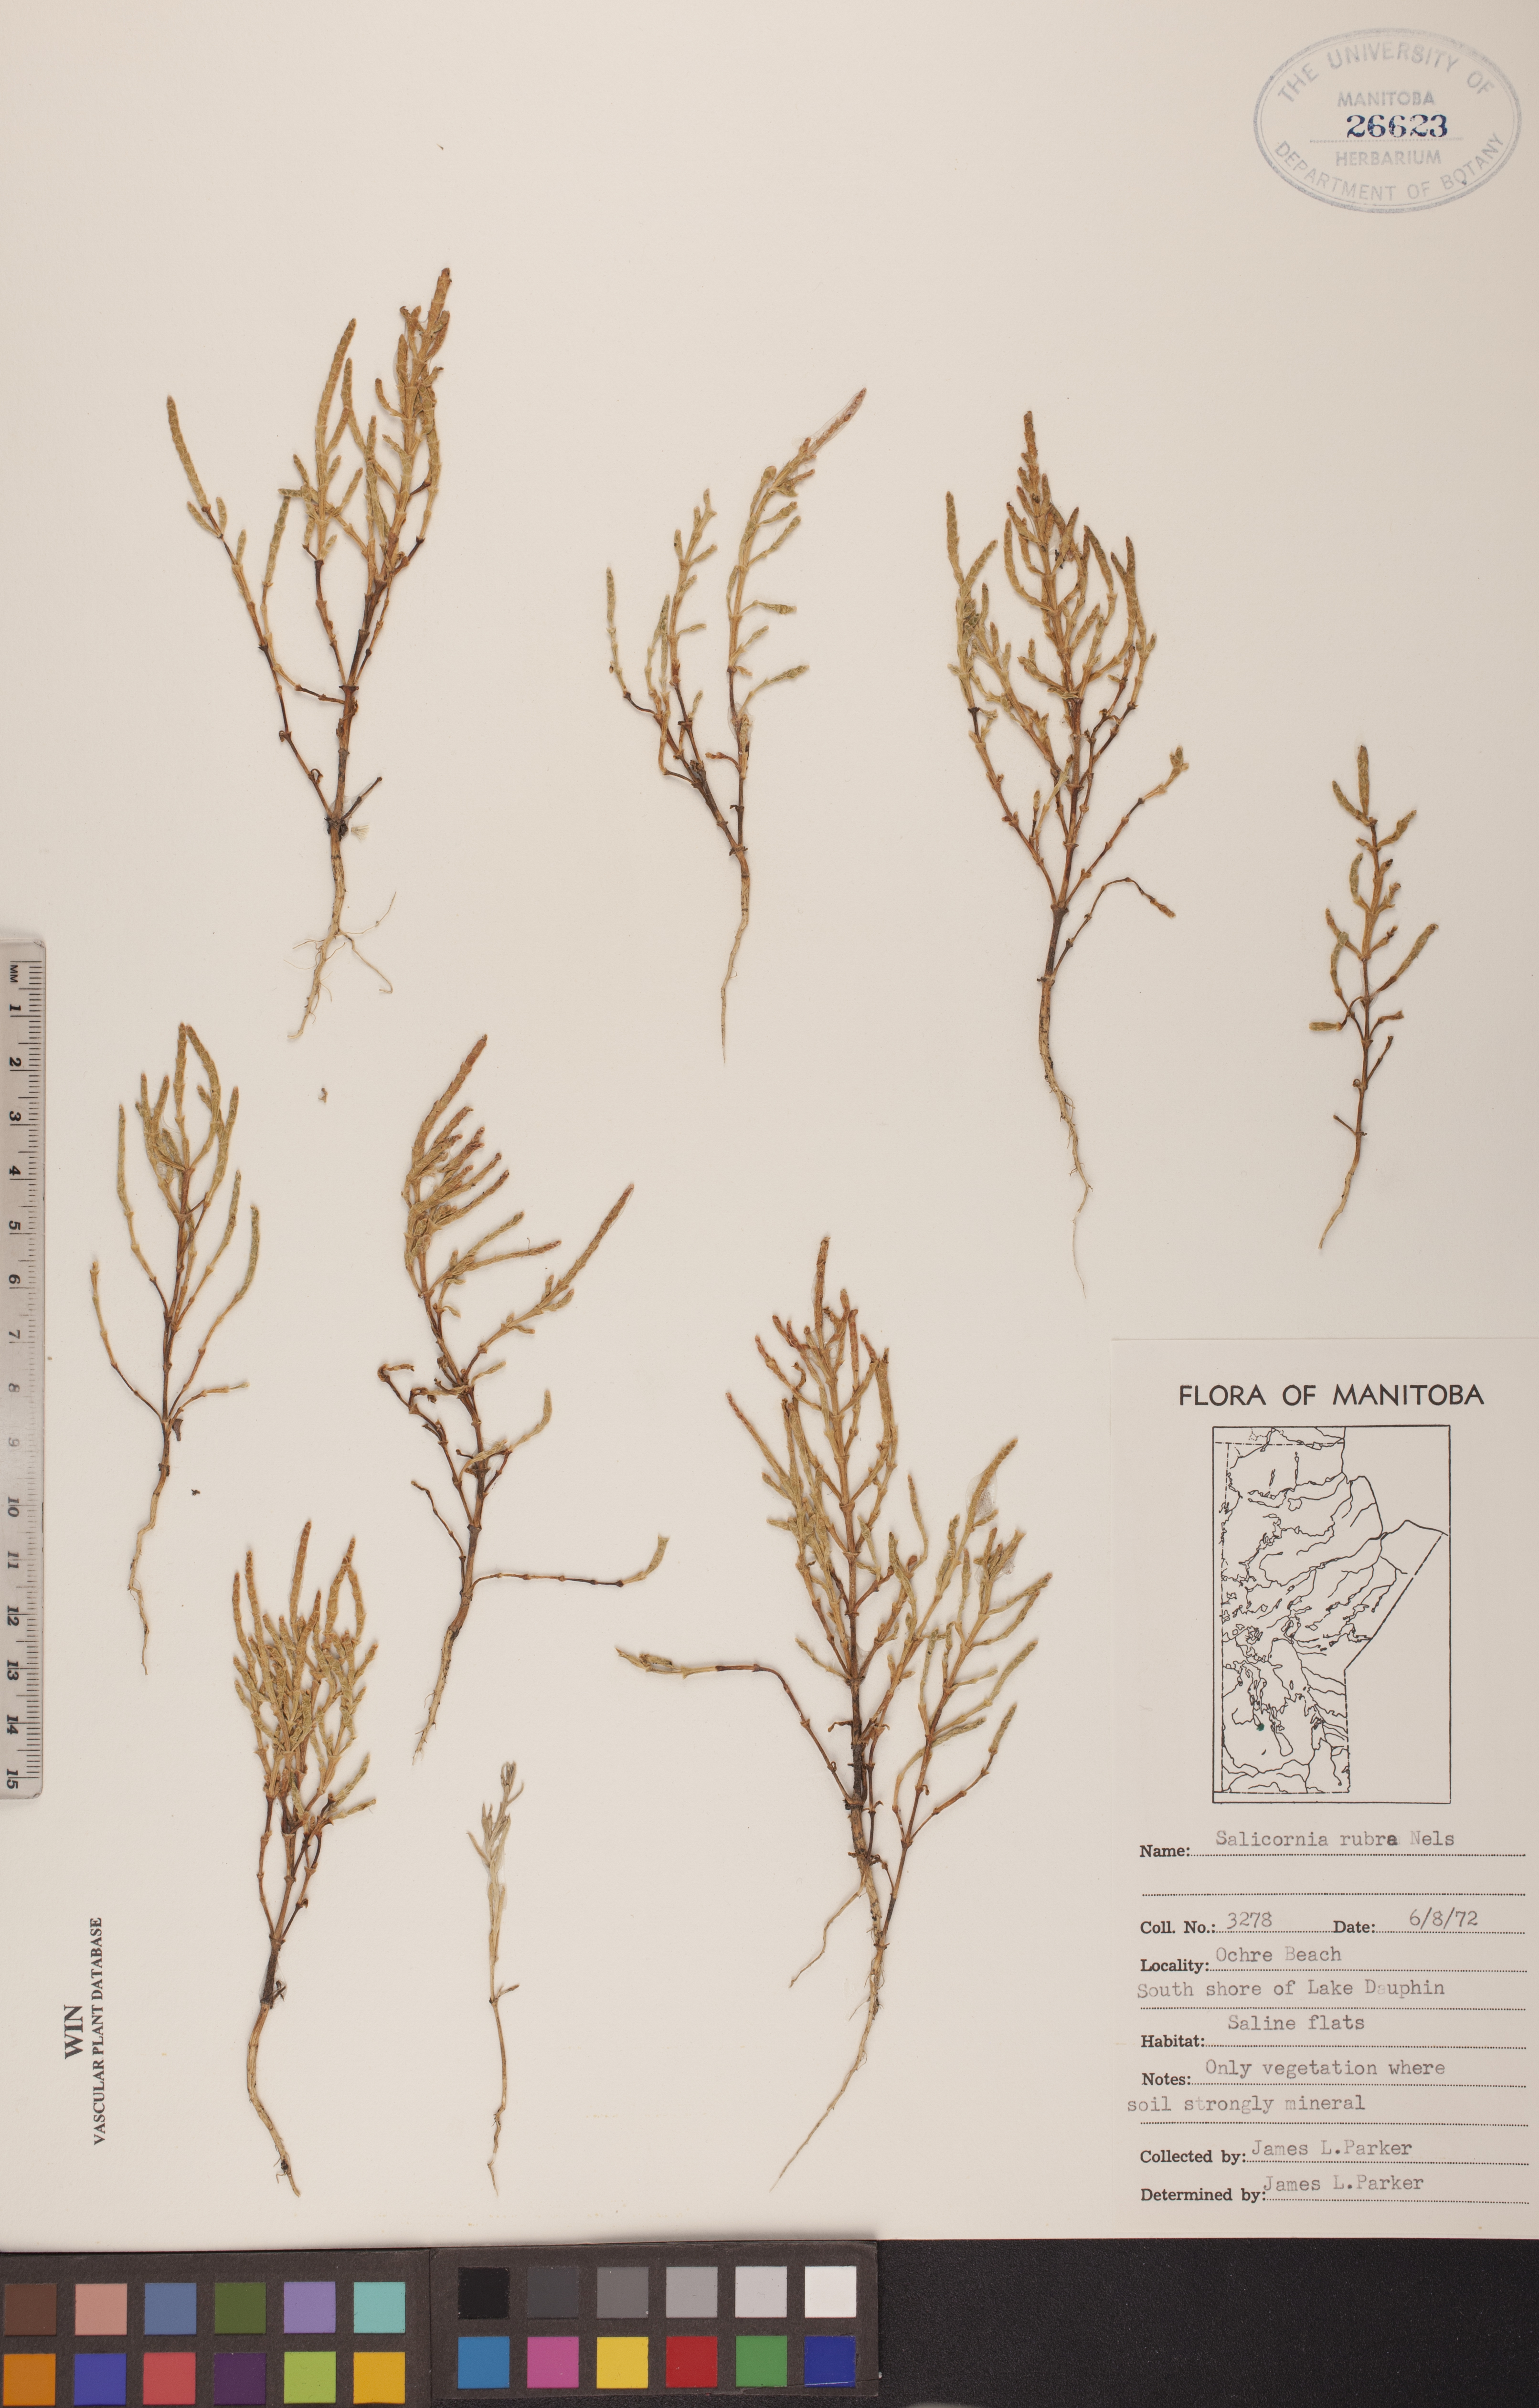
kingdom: Plantae
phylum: Tracheophyta
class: Magnoliopsida
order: Caryophyllales
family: Amaranthaceae
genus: Salicornia
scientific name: Salicornia rubra
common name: Red glasswort
